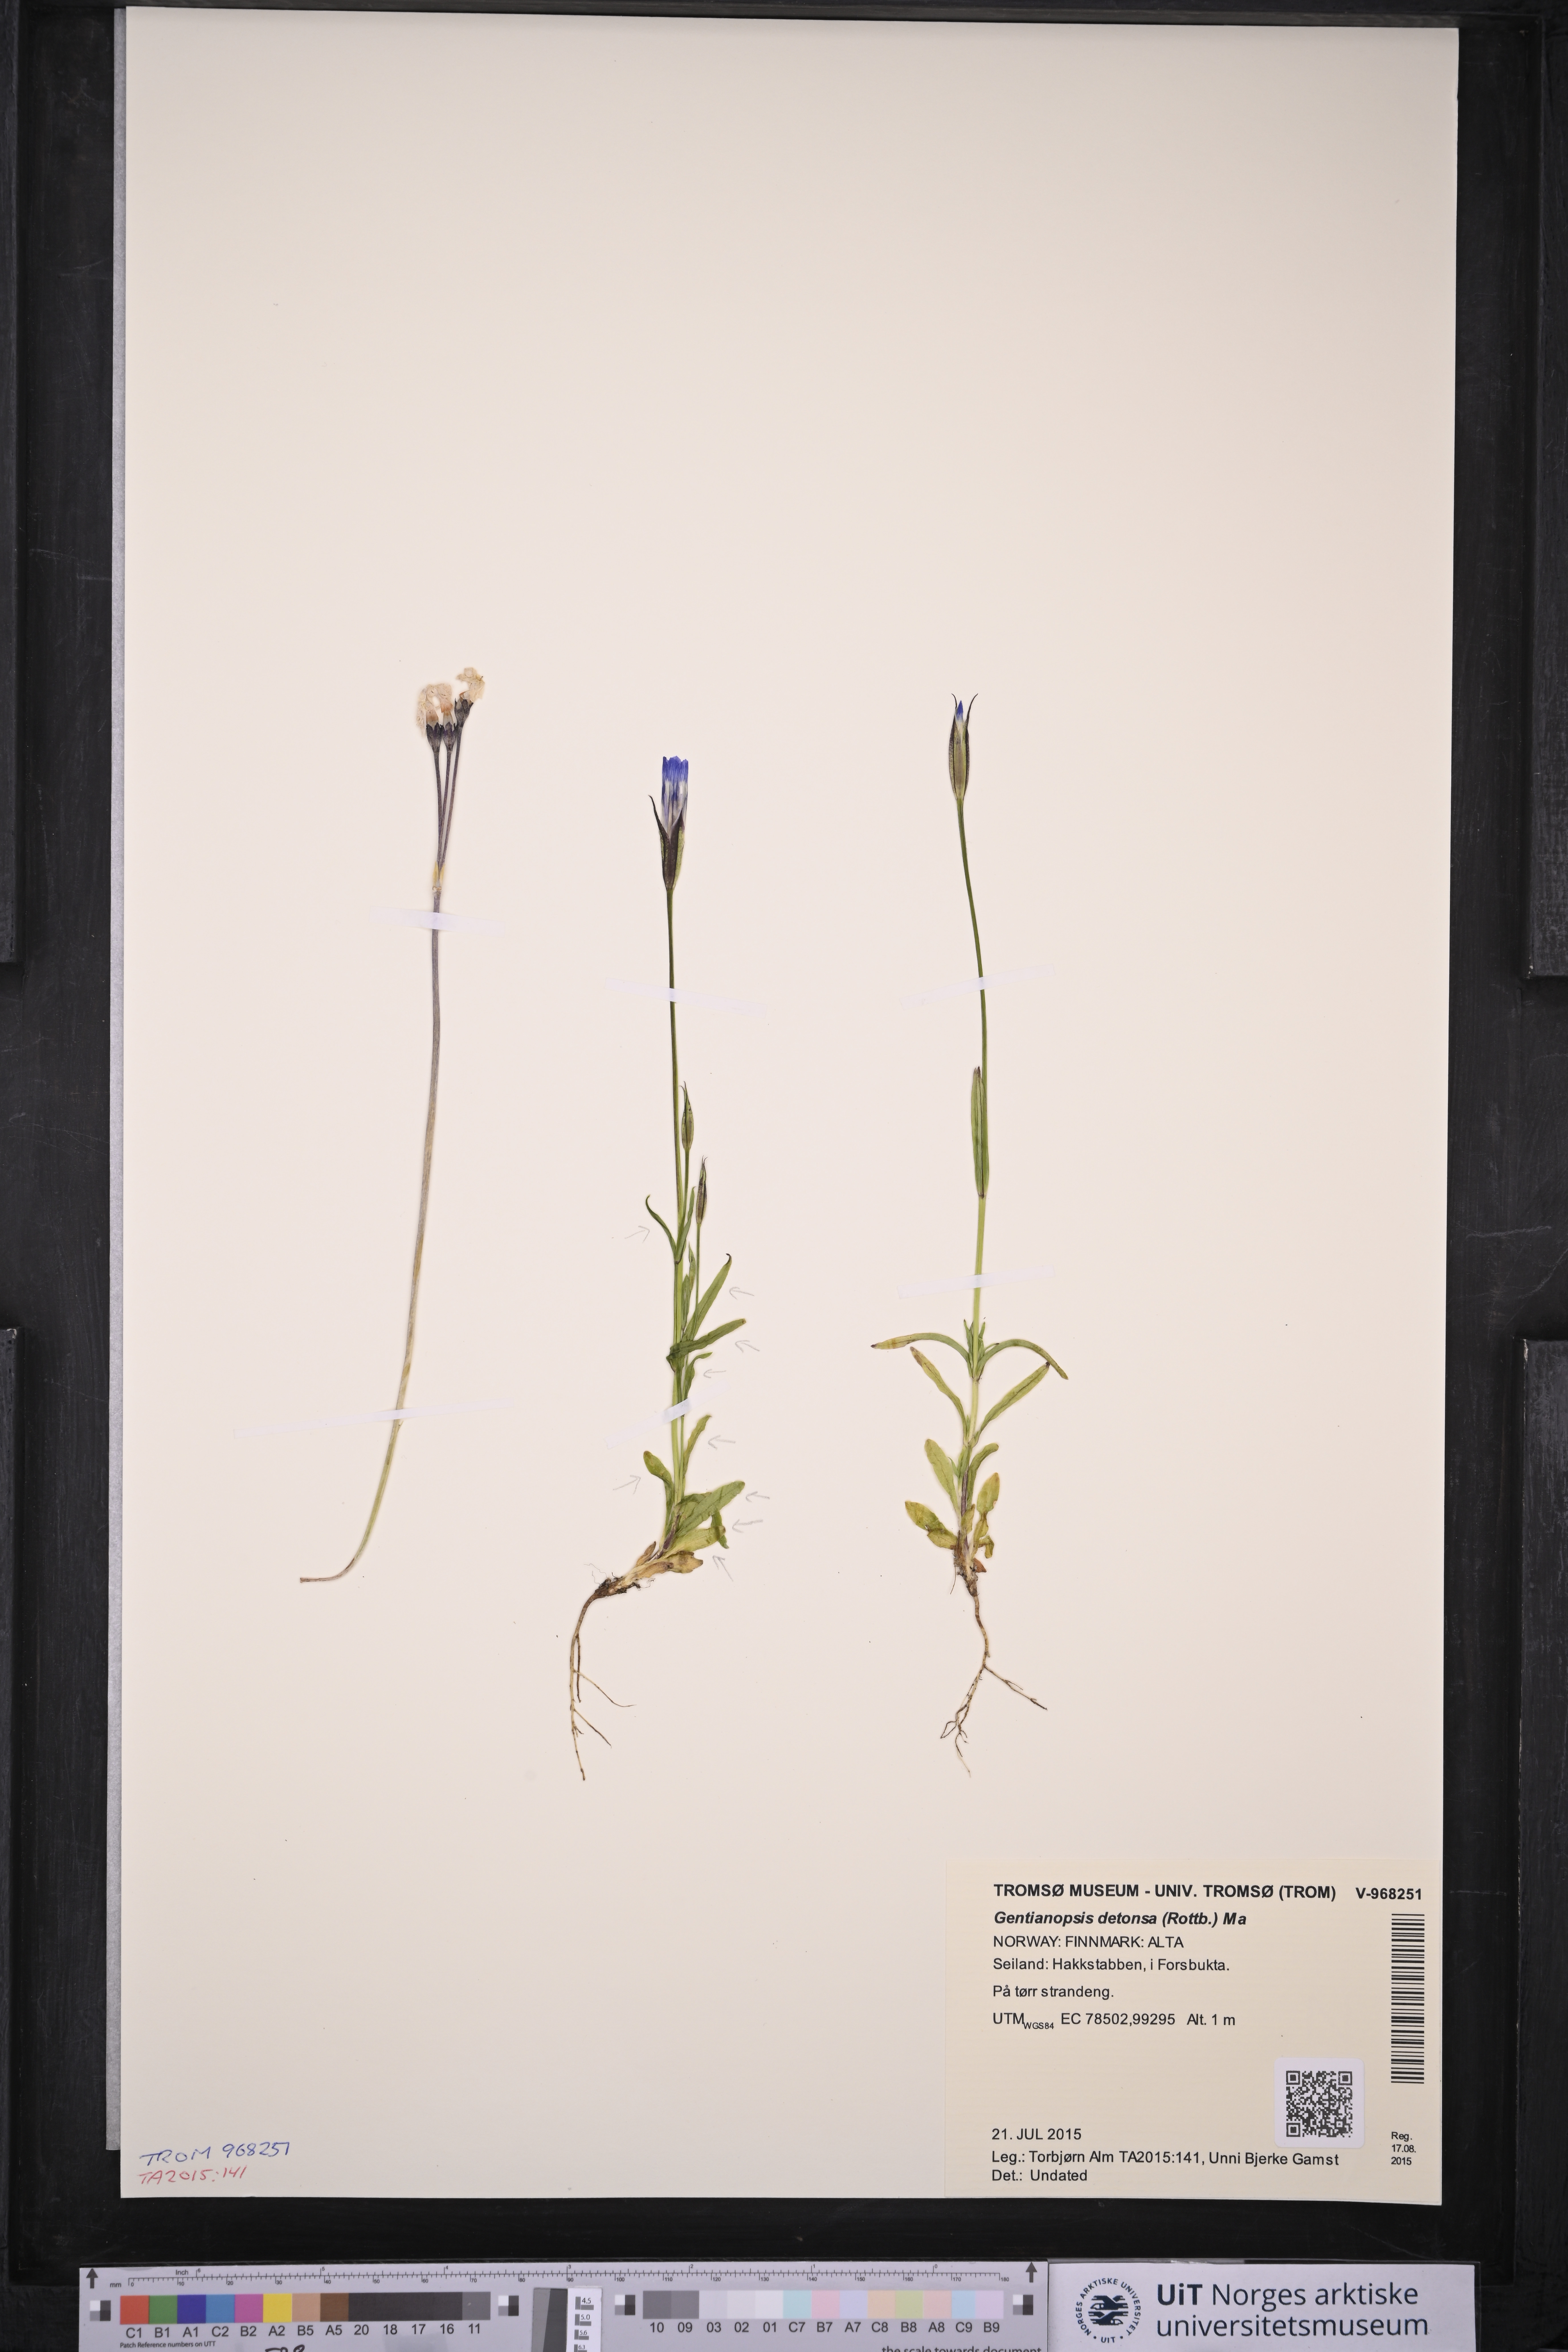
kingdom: Plantae
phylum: Tracheophyta
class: Magnoliopsida
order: Gentianales
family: Gentianaceae
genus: Gentianopsis
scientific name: Gentianopsis detonsa
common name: Fringed-gentian
